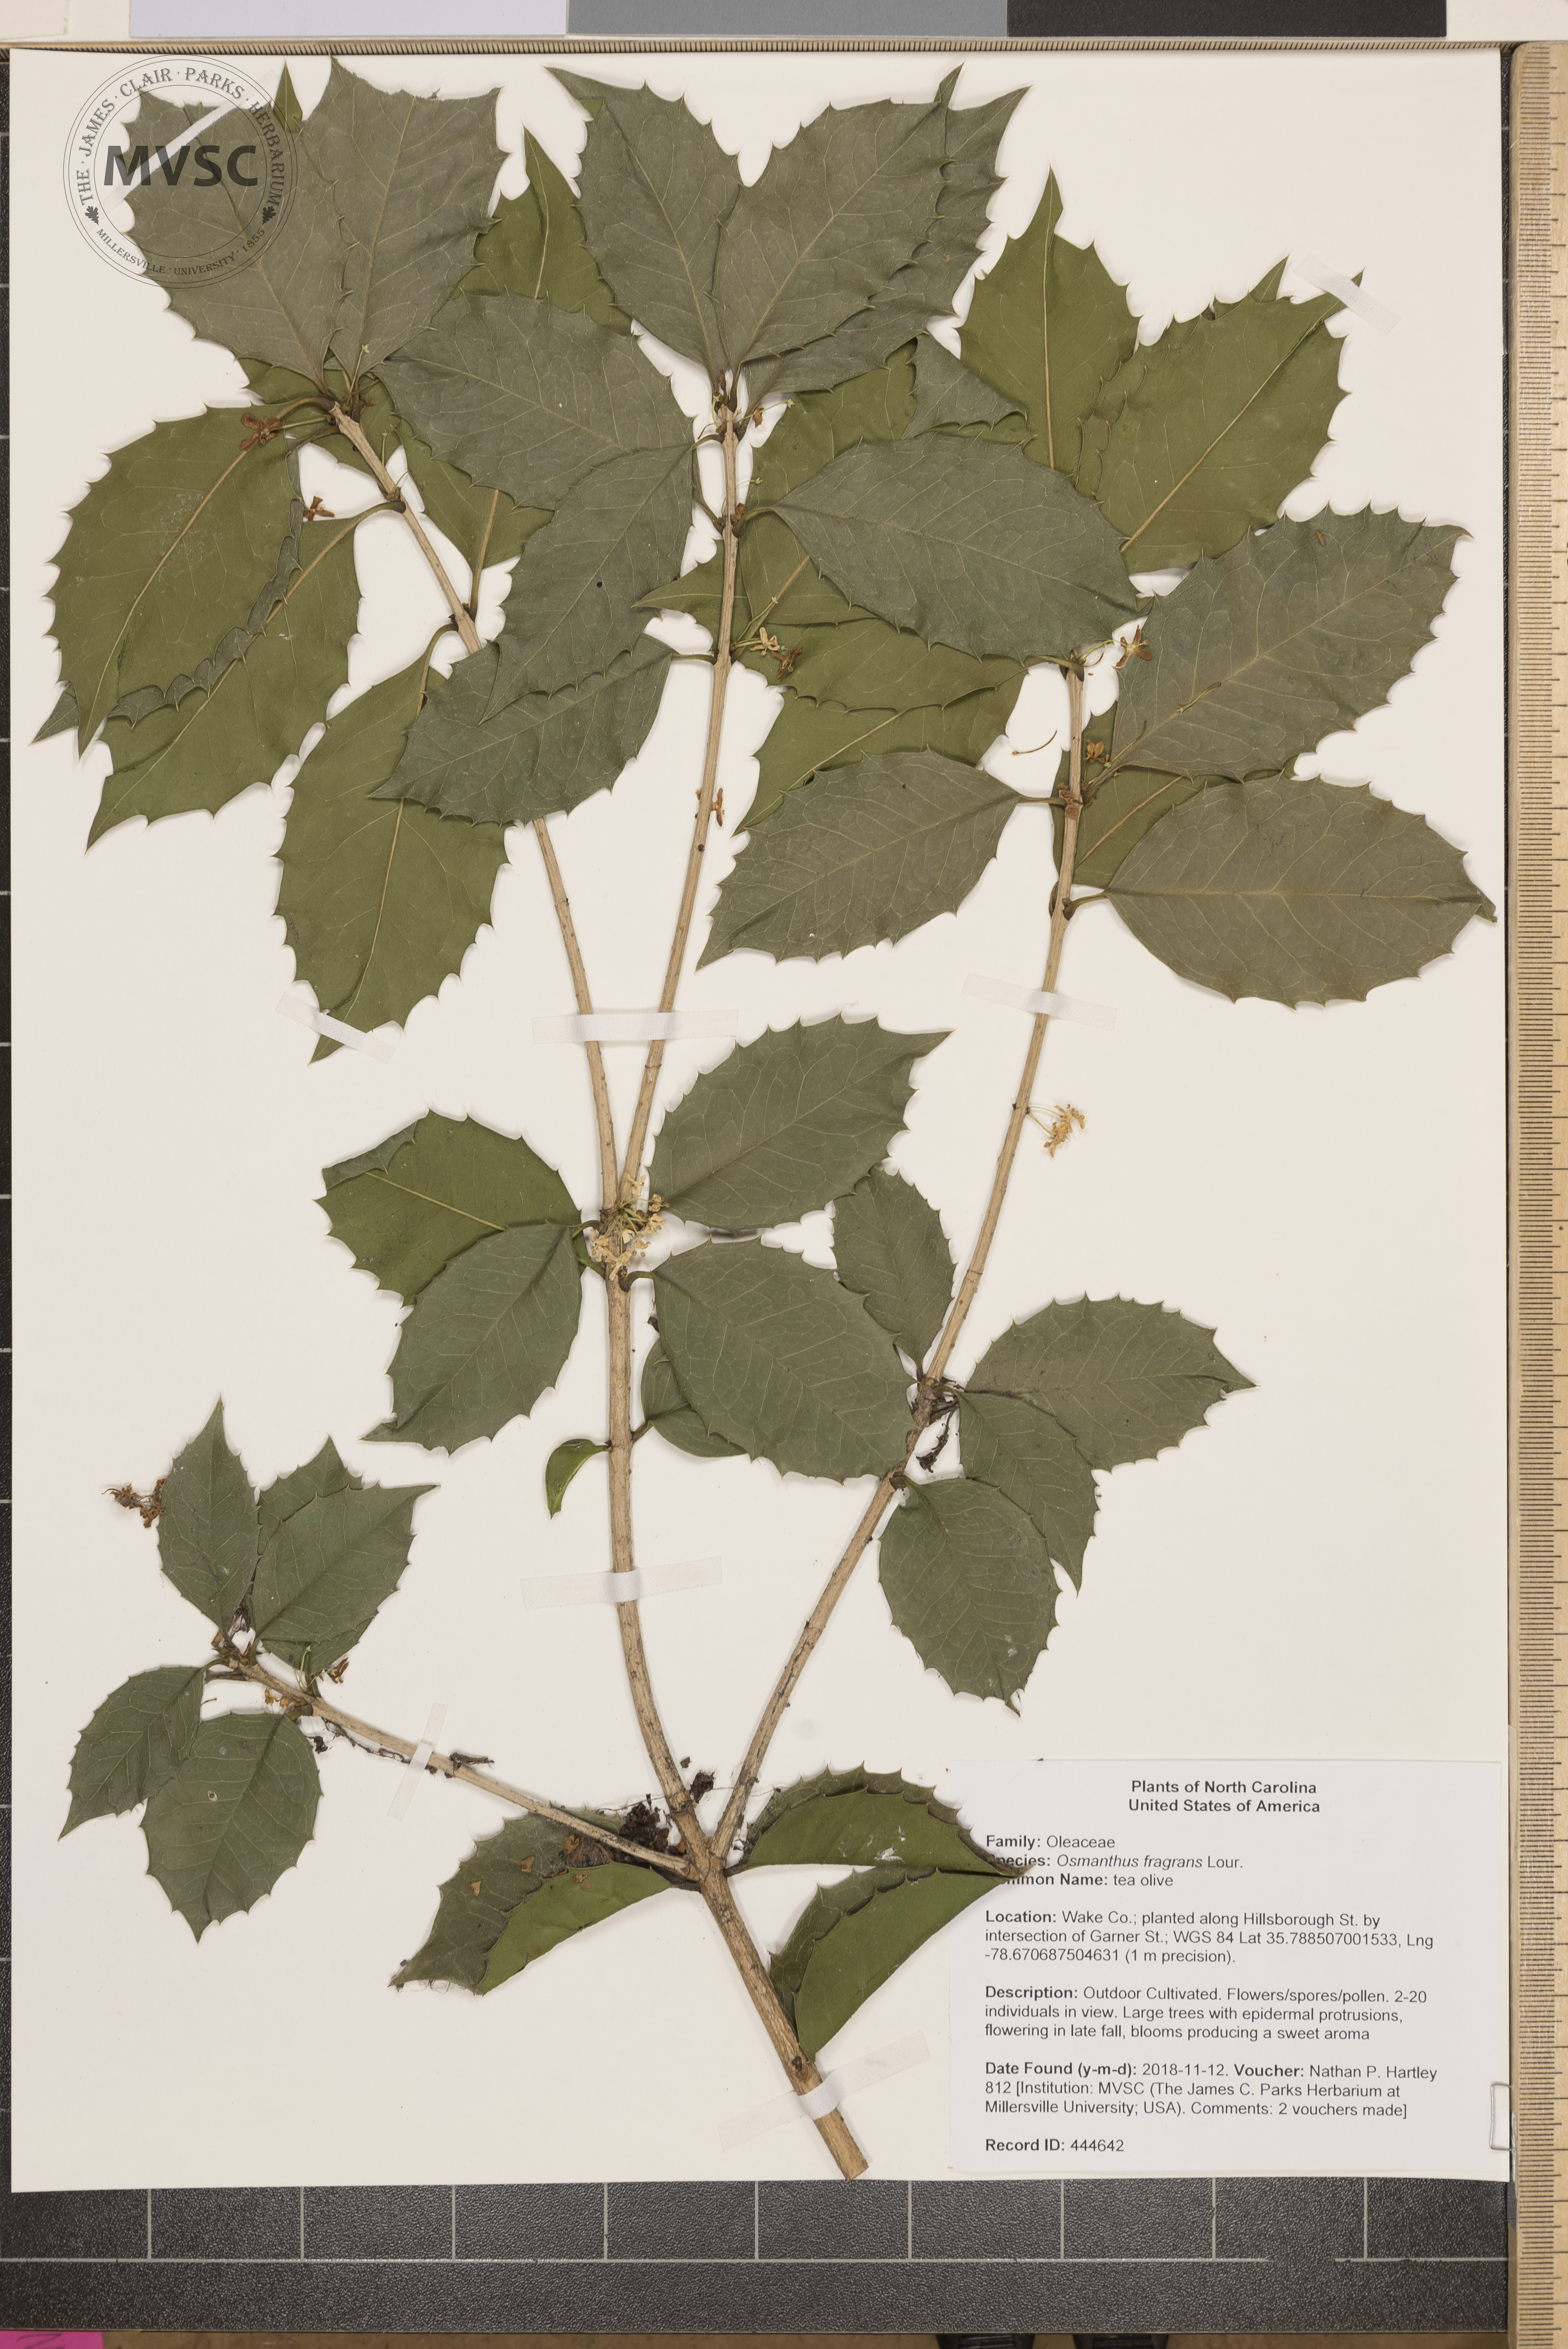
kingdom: Plantae
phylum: Tracheophyta
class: Magnoliopsida
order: Lamiales
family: Oleaceae
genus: Osmanthus
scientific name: Osmanthus fragrans
